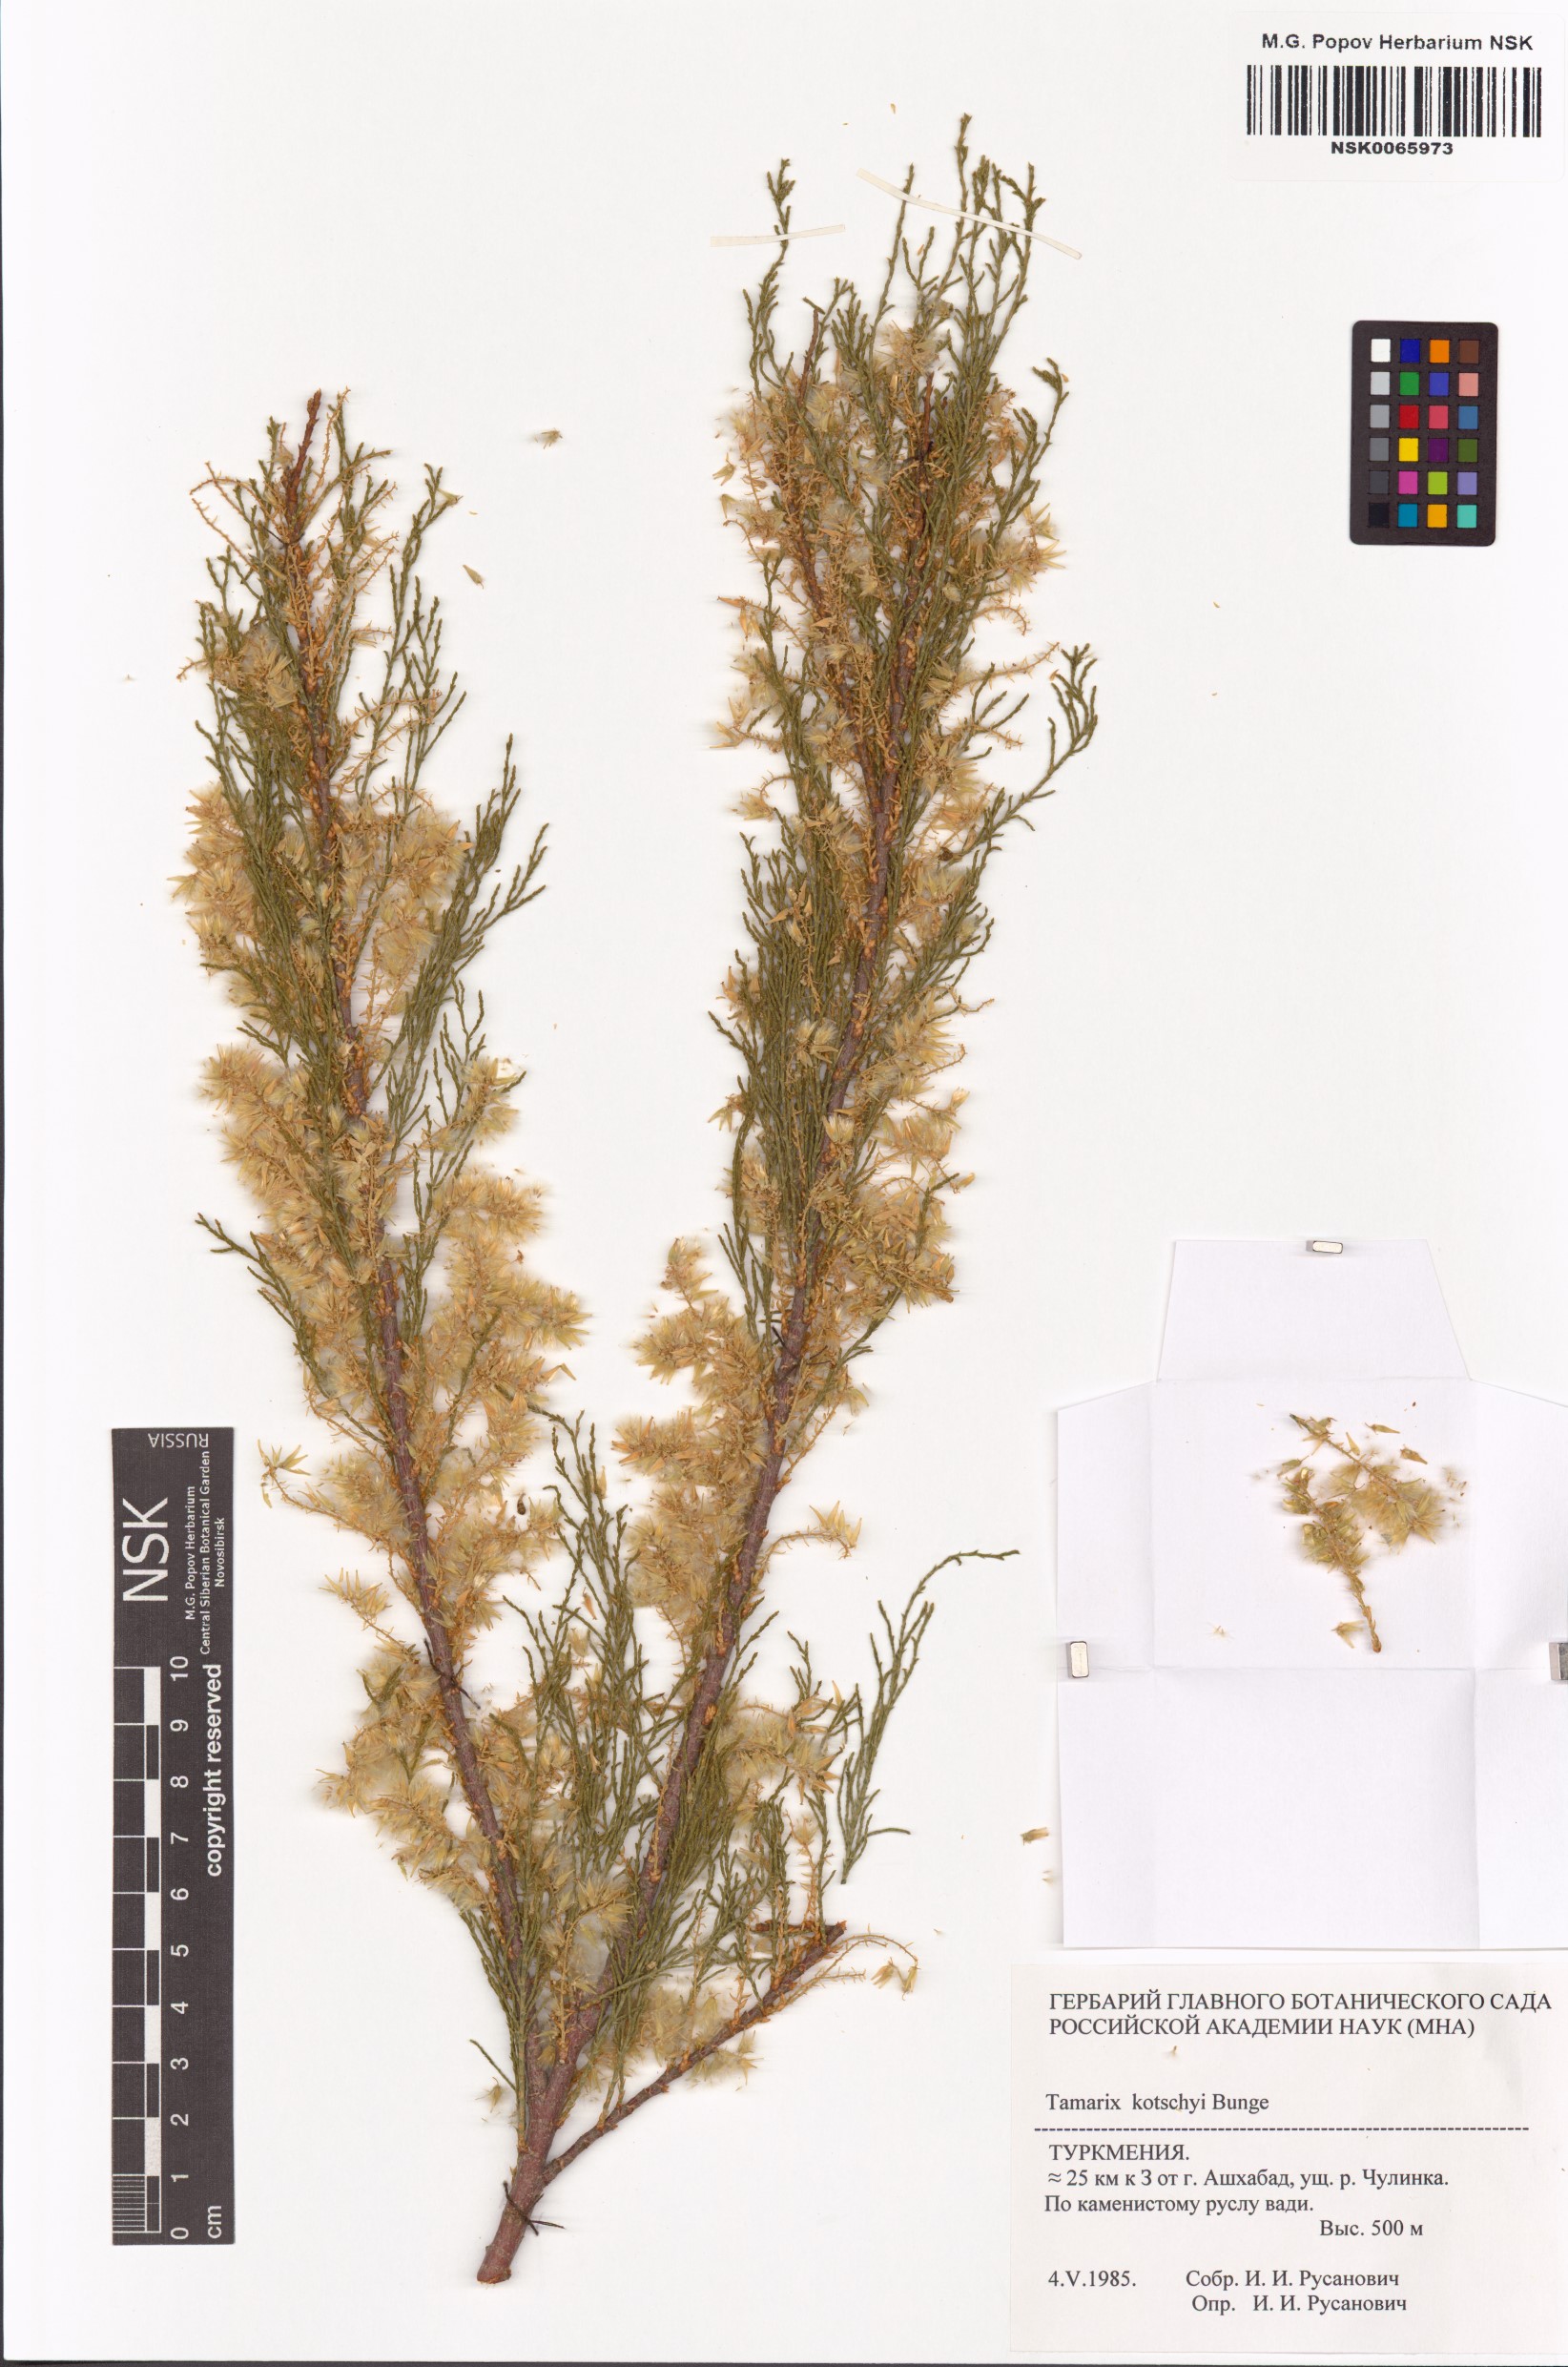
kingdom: Plantae
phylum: Tracheophyta
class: Magnoliopsida
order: Caryophyllales
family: Tamaricaceae
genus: Tamarix
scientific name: Tamarix kotschyi
